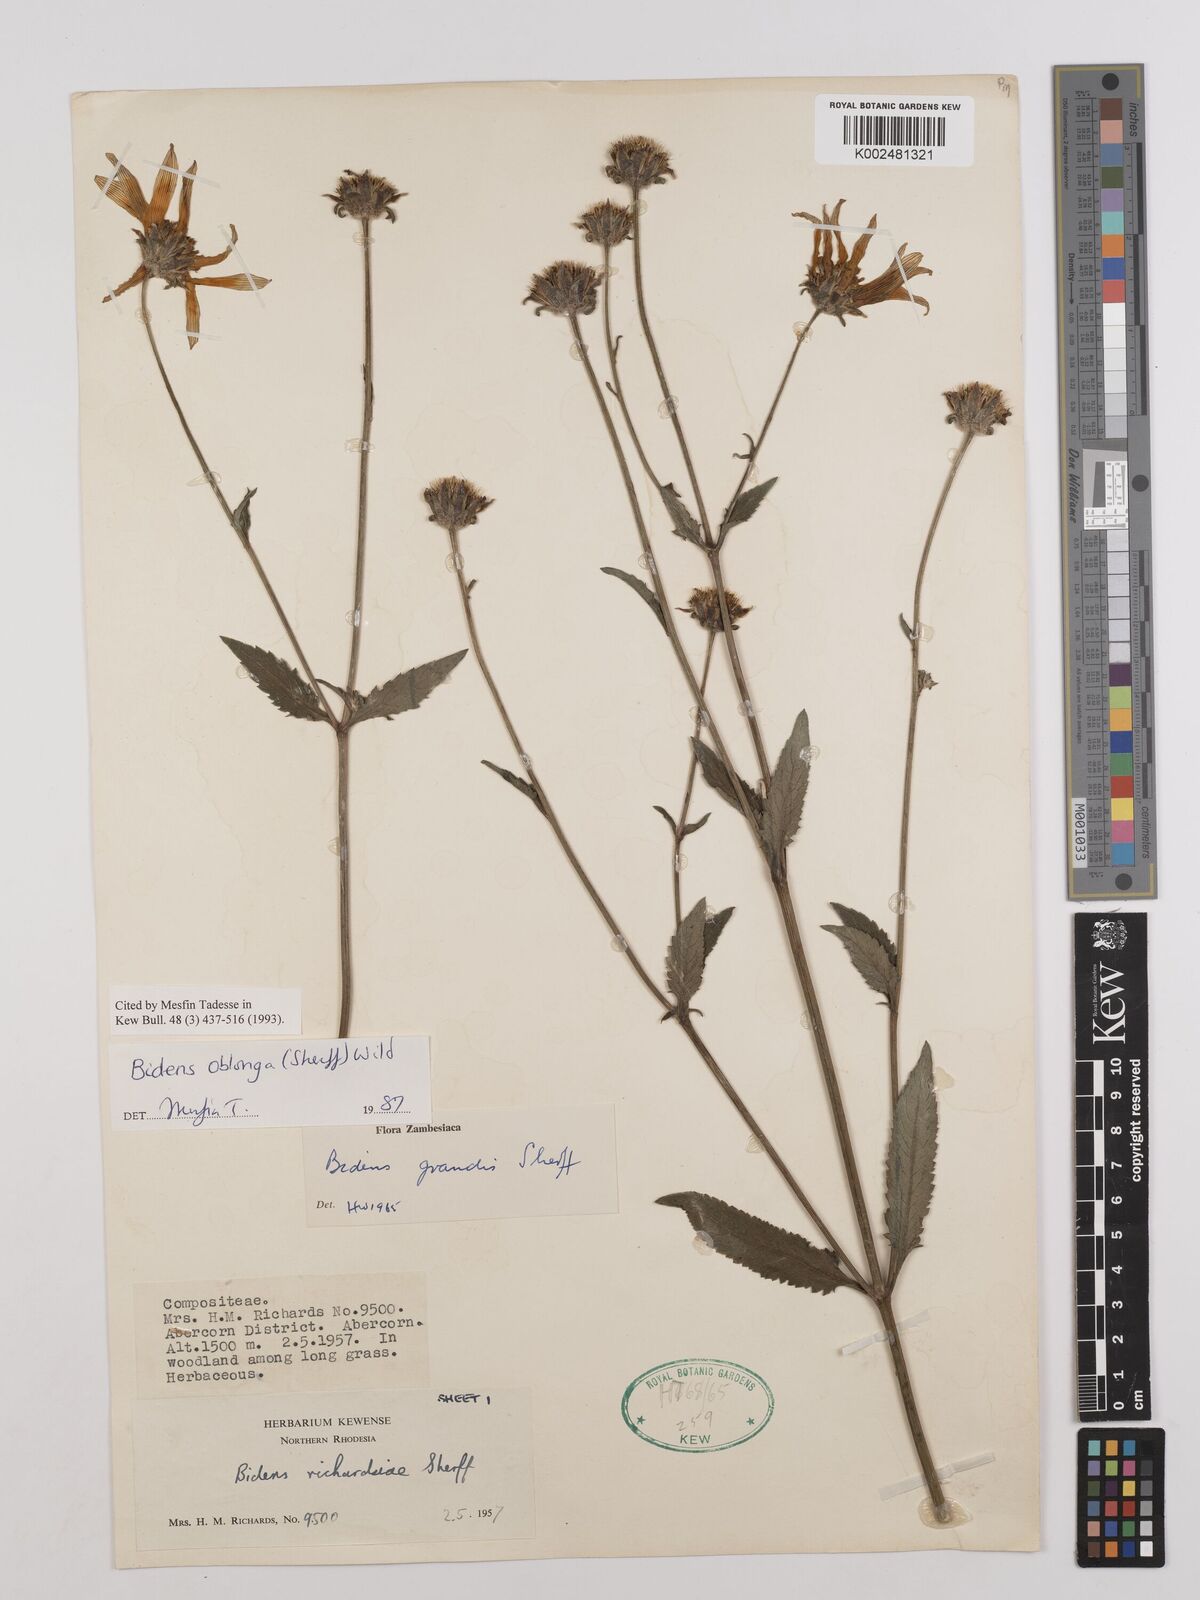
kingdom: Plantae
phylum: Tracheophyta
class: Magnoliopsida
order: Asterales
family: Asteraceae
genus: Bidens
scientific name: Bidens oblonga
